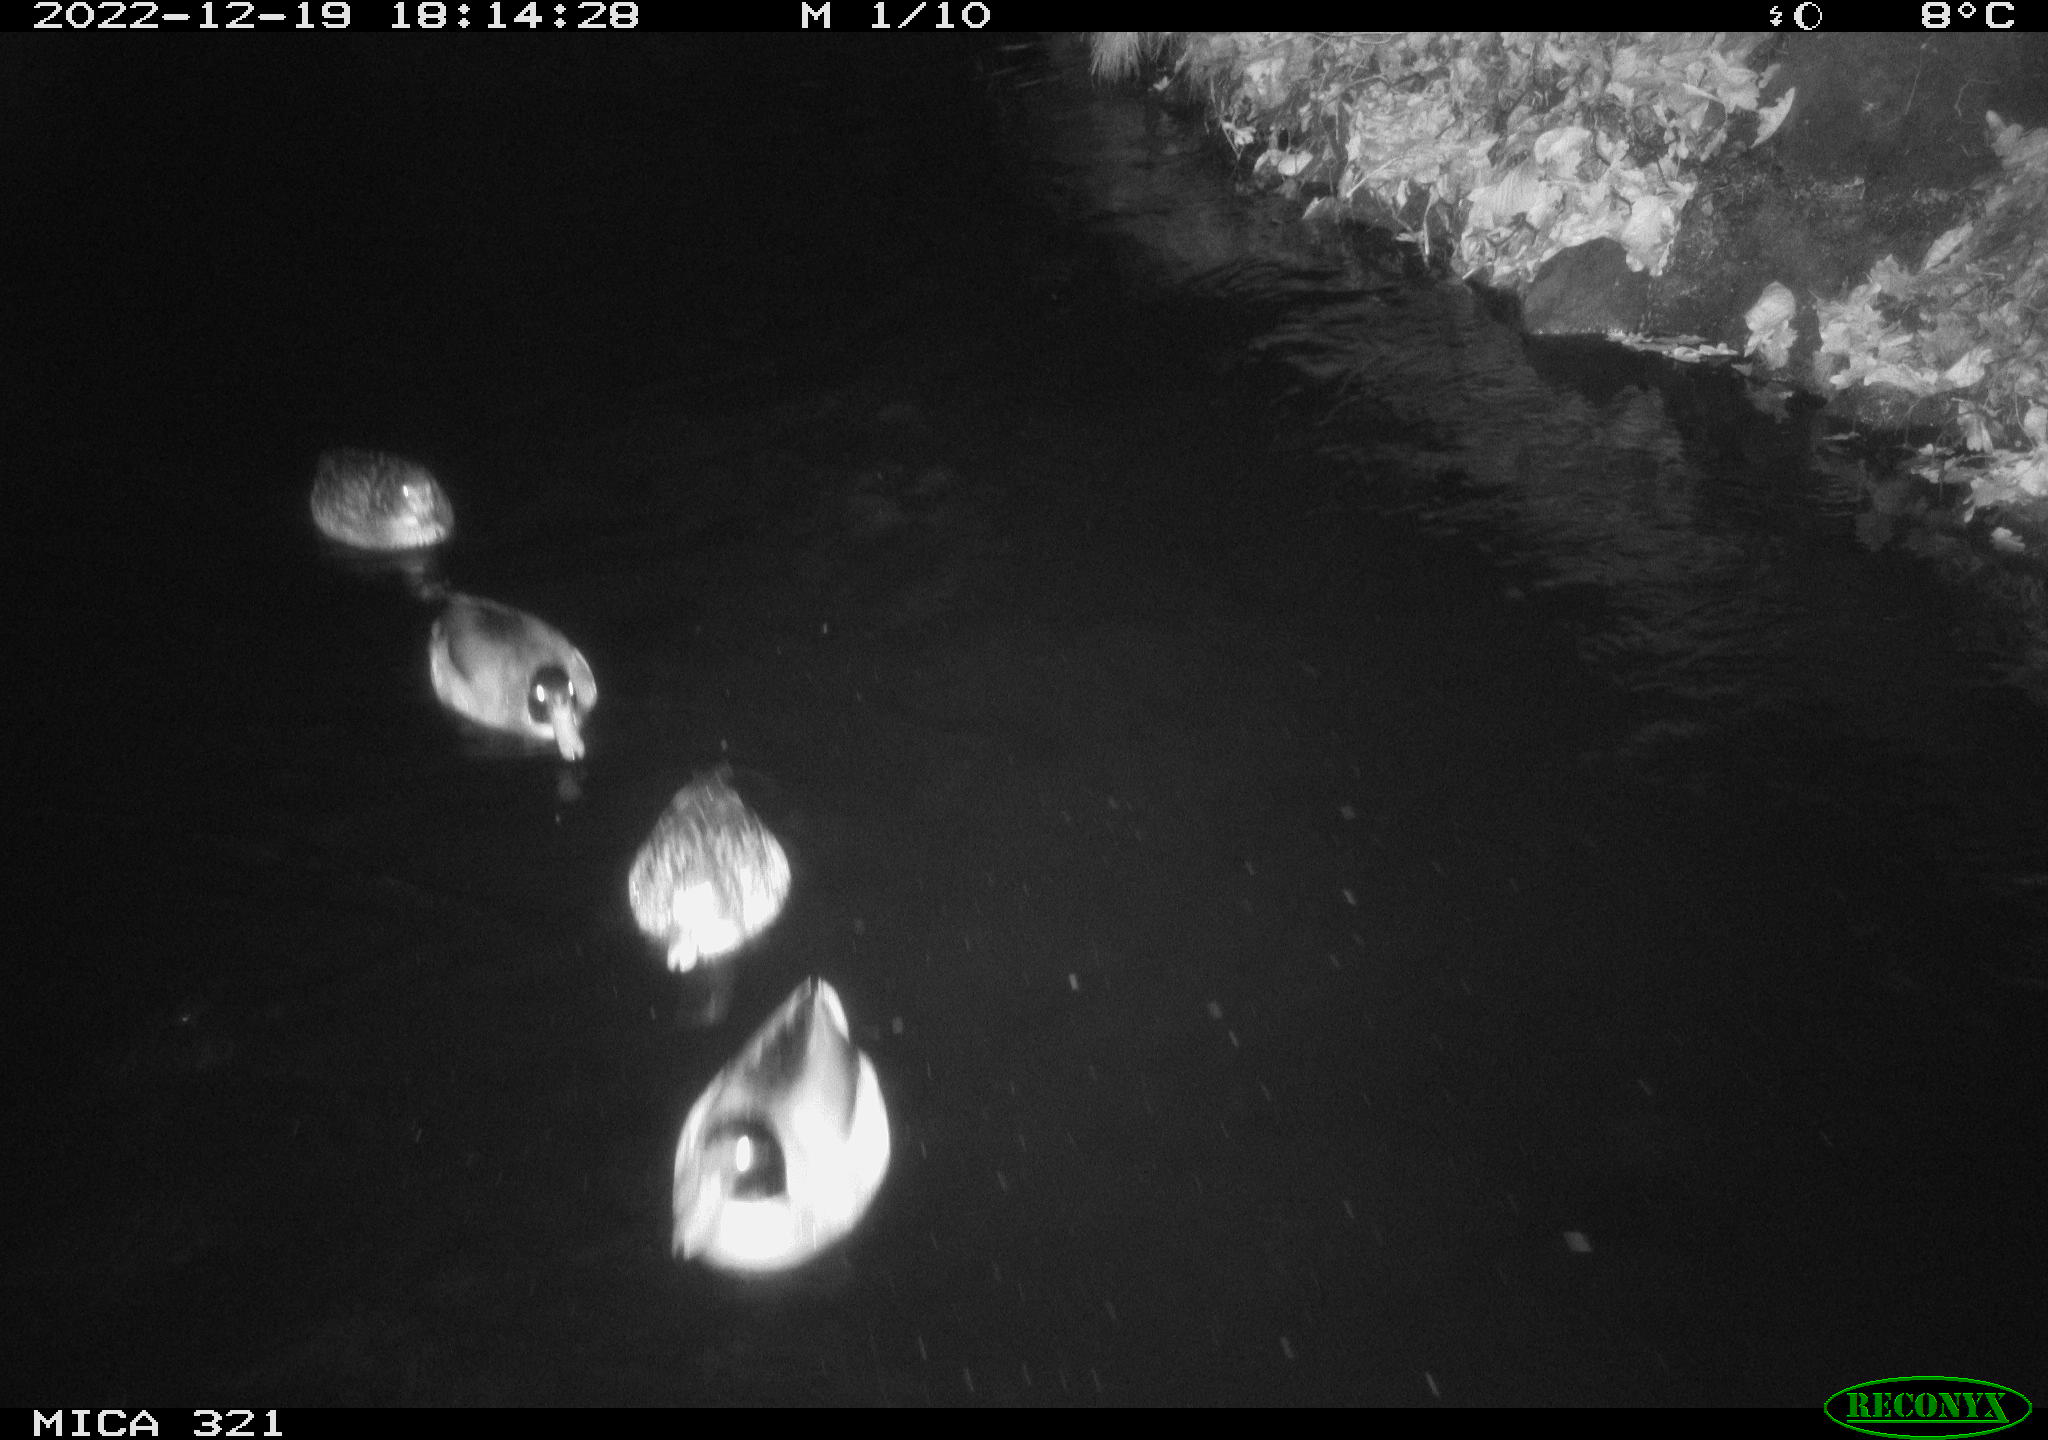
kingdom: Animalia
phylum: Chordata
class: Mammalia
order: Rodentia
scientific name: Rodentia
